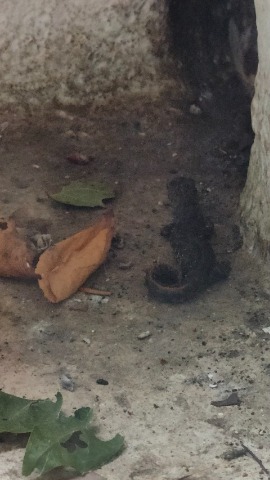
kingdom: Animalia
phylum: Chordata
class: Amphibia
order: Caudata
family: Salamandridae
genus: Triturus
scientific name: Triturus cristatus
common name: Stor vandsalamander
